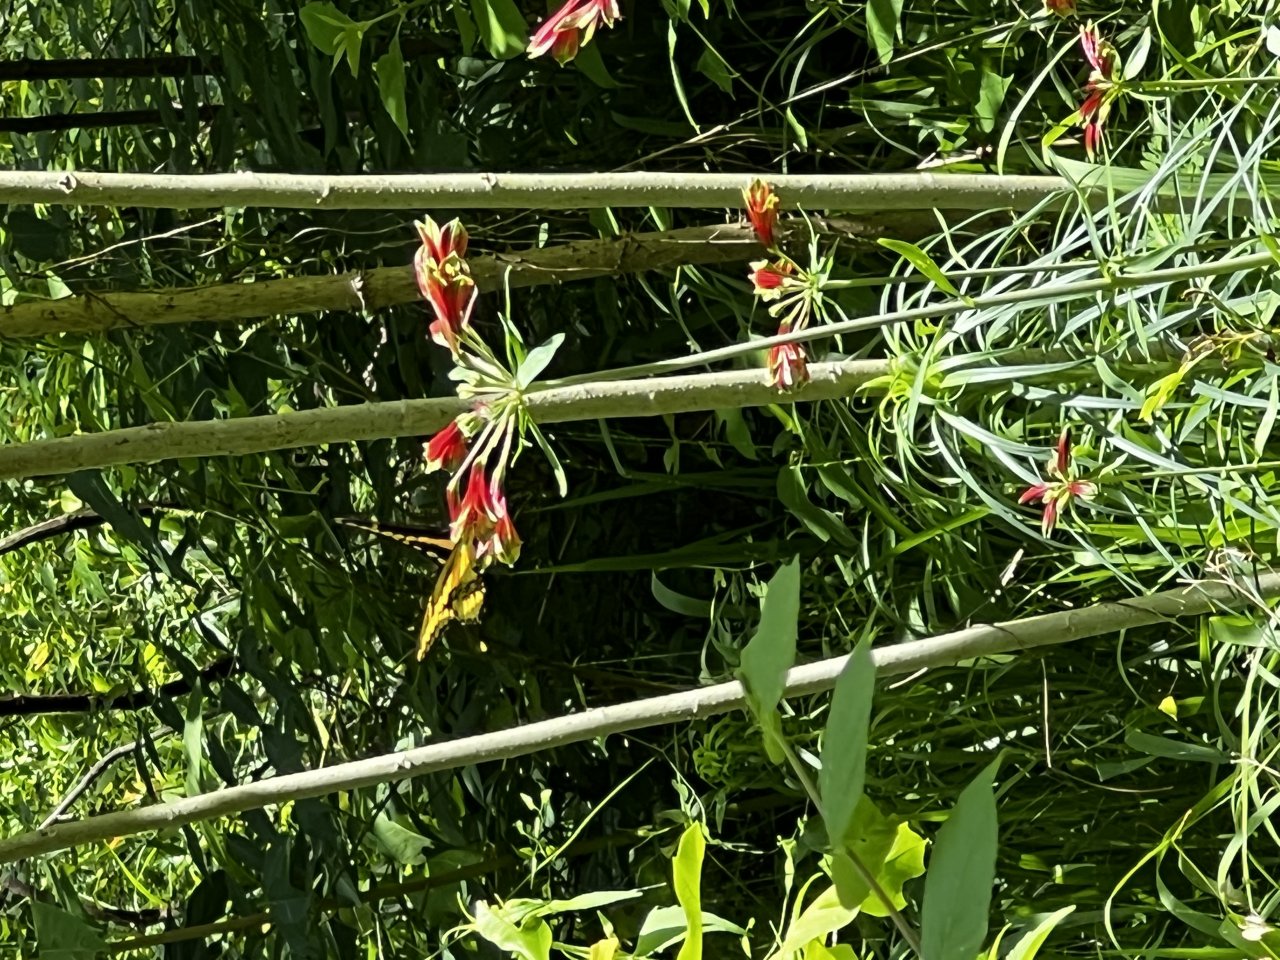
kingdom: Animalia
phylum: Arthropoda
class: Insecta
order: Lepidoptera
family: Papilionidae
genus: Papilio
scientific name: Papilio cresphontes
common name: Eastern Giant Swallowtail
